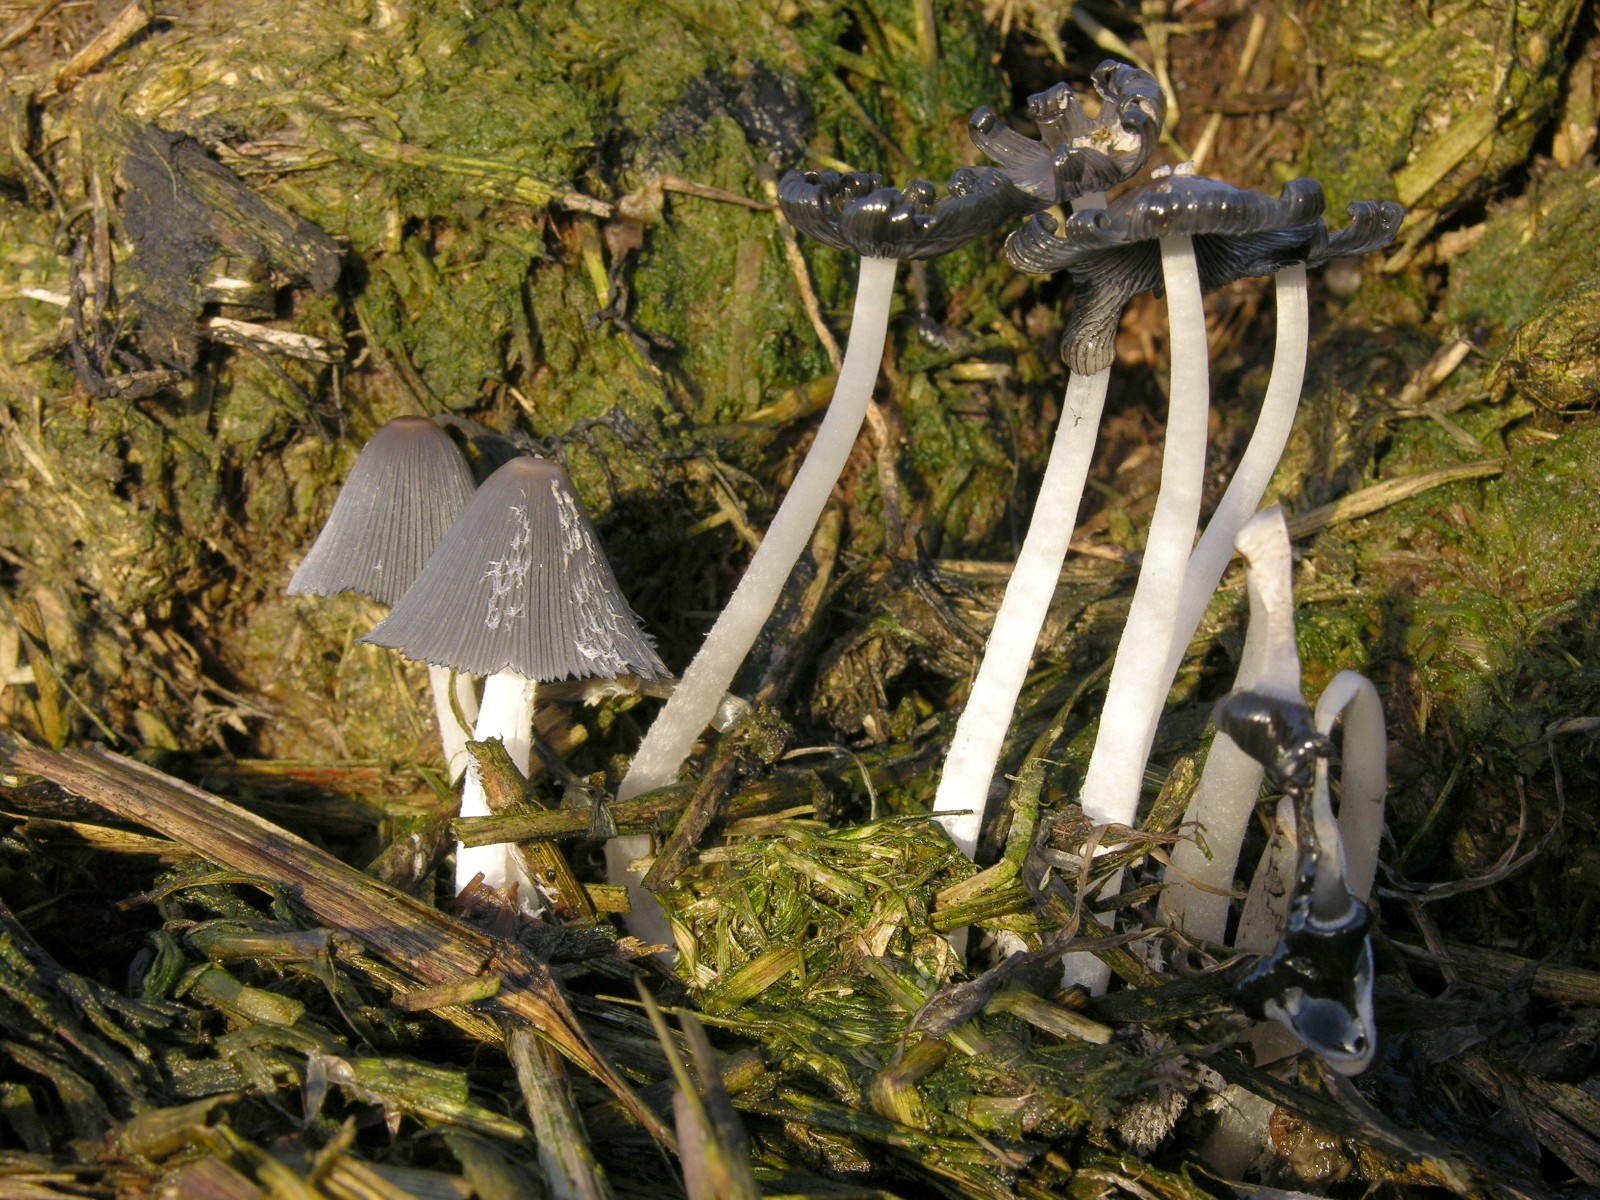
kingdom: Fungi
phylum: Basidiomycota
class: Agaricomycetes
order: Agaricales
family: Psathyrellaceae
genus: Coprinopsis
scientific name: Coprinopsis macrocephala
